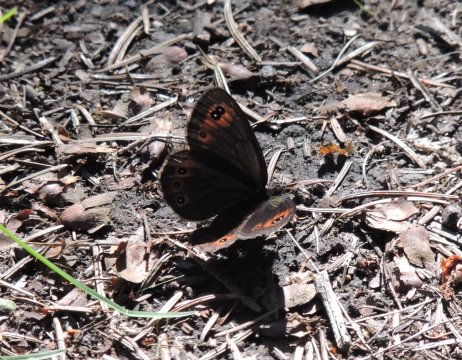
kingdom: Animalia
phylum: Arthropoda
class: Insecta
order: Lepidoptera
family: Nymphalidae
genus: Erebia
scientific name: Erebia epipsodea
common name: Common Alpine
